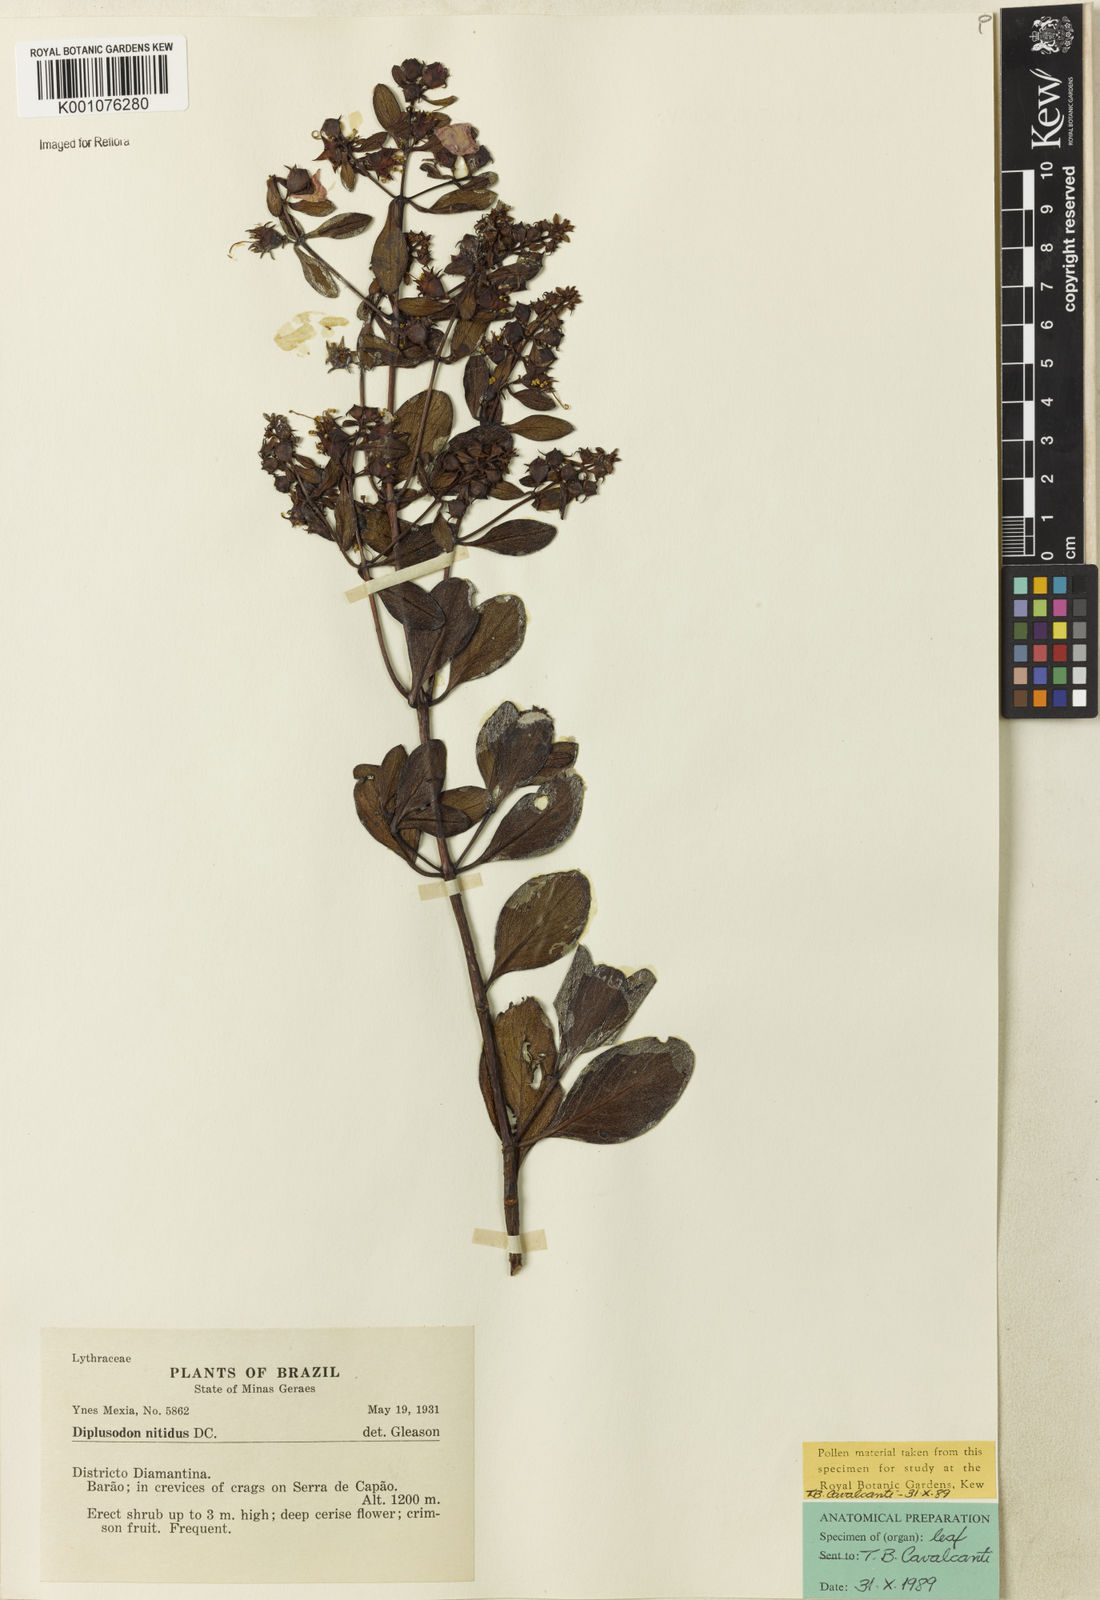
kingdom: Plantae
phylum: Tracheophyta
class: Magnoliopsida
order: Myrtales
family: Lythraceae
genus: Diplusodon
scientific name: Diplusodon nitidus
